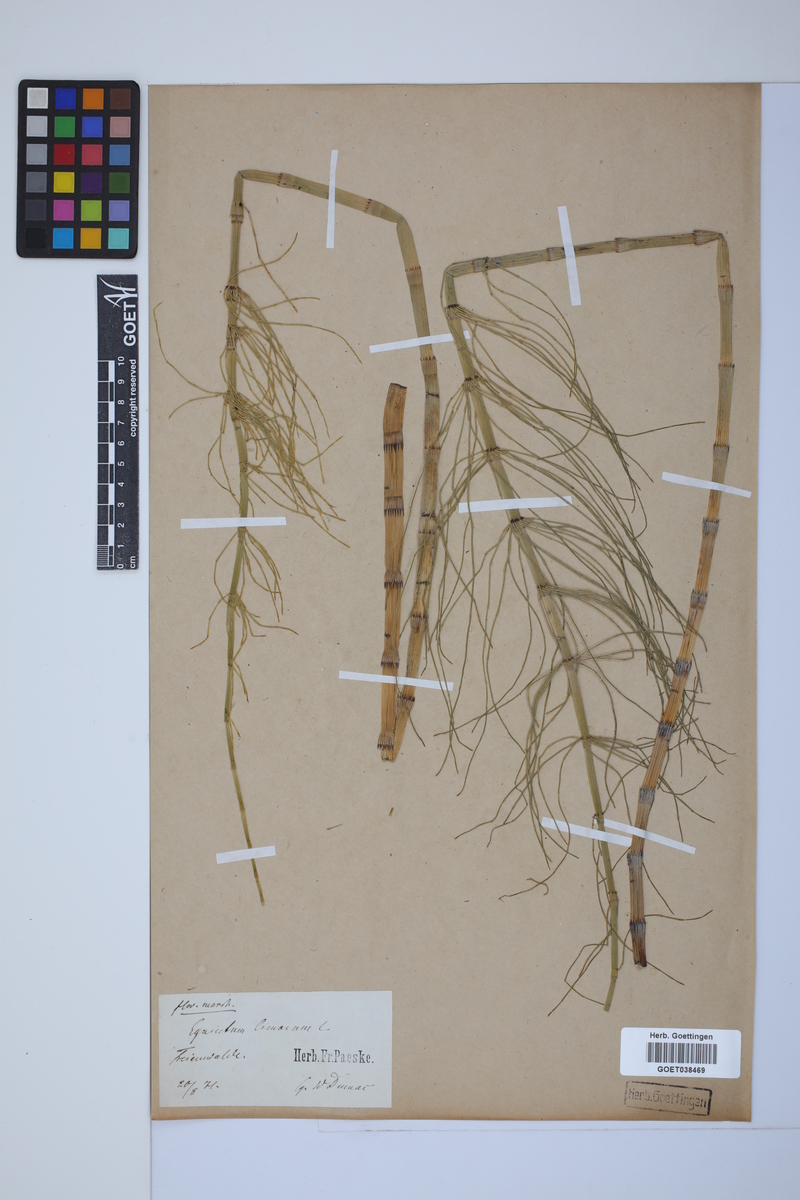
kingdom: Plantae
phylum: Tracheophyta
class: Polypodiopsida
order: Equisetales
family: Equisetaceae
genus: Equisetum
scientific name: Equisetum fluviatile
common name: Water horsetail
